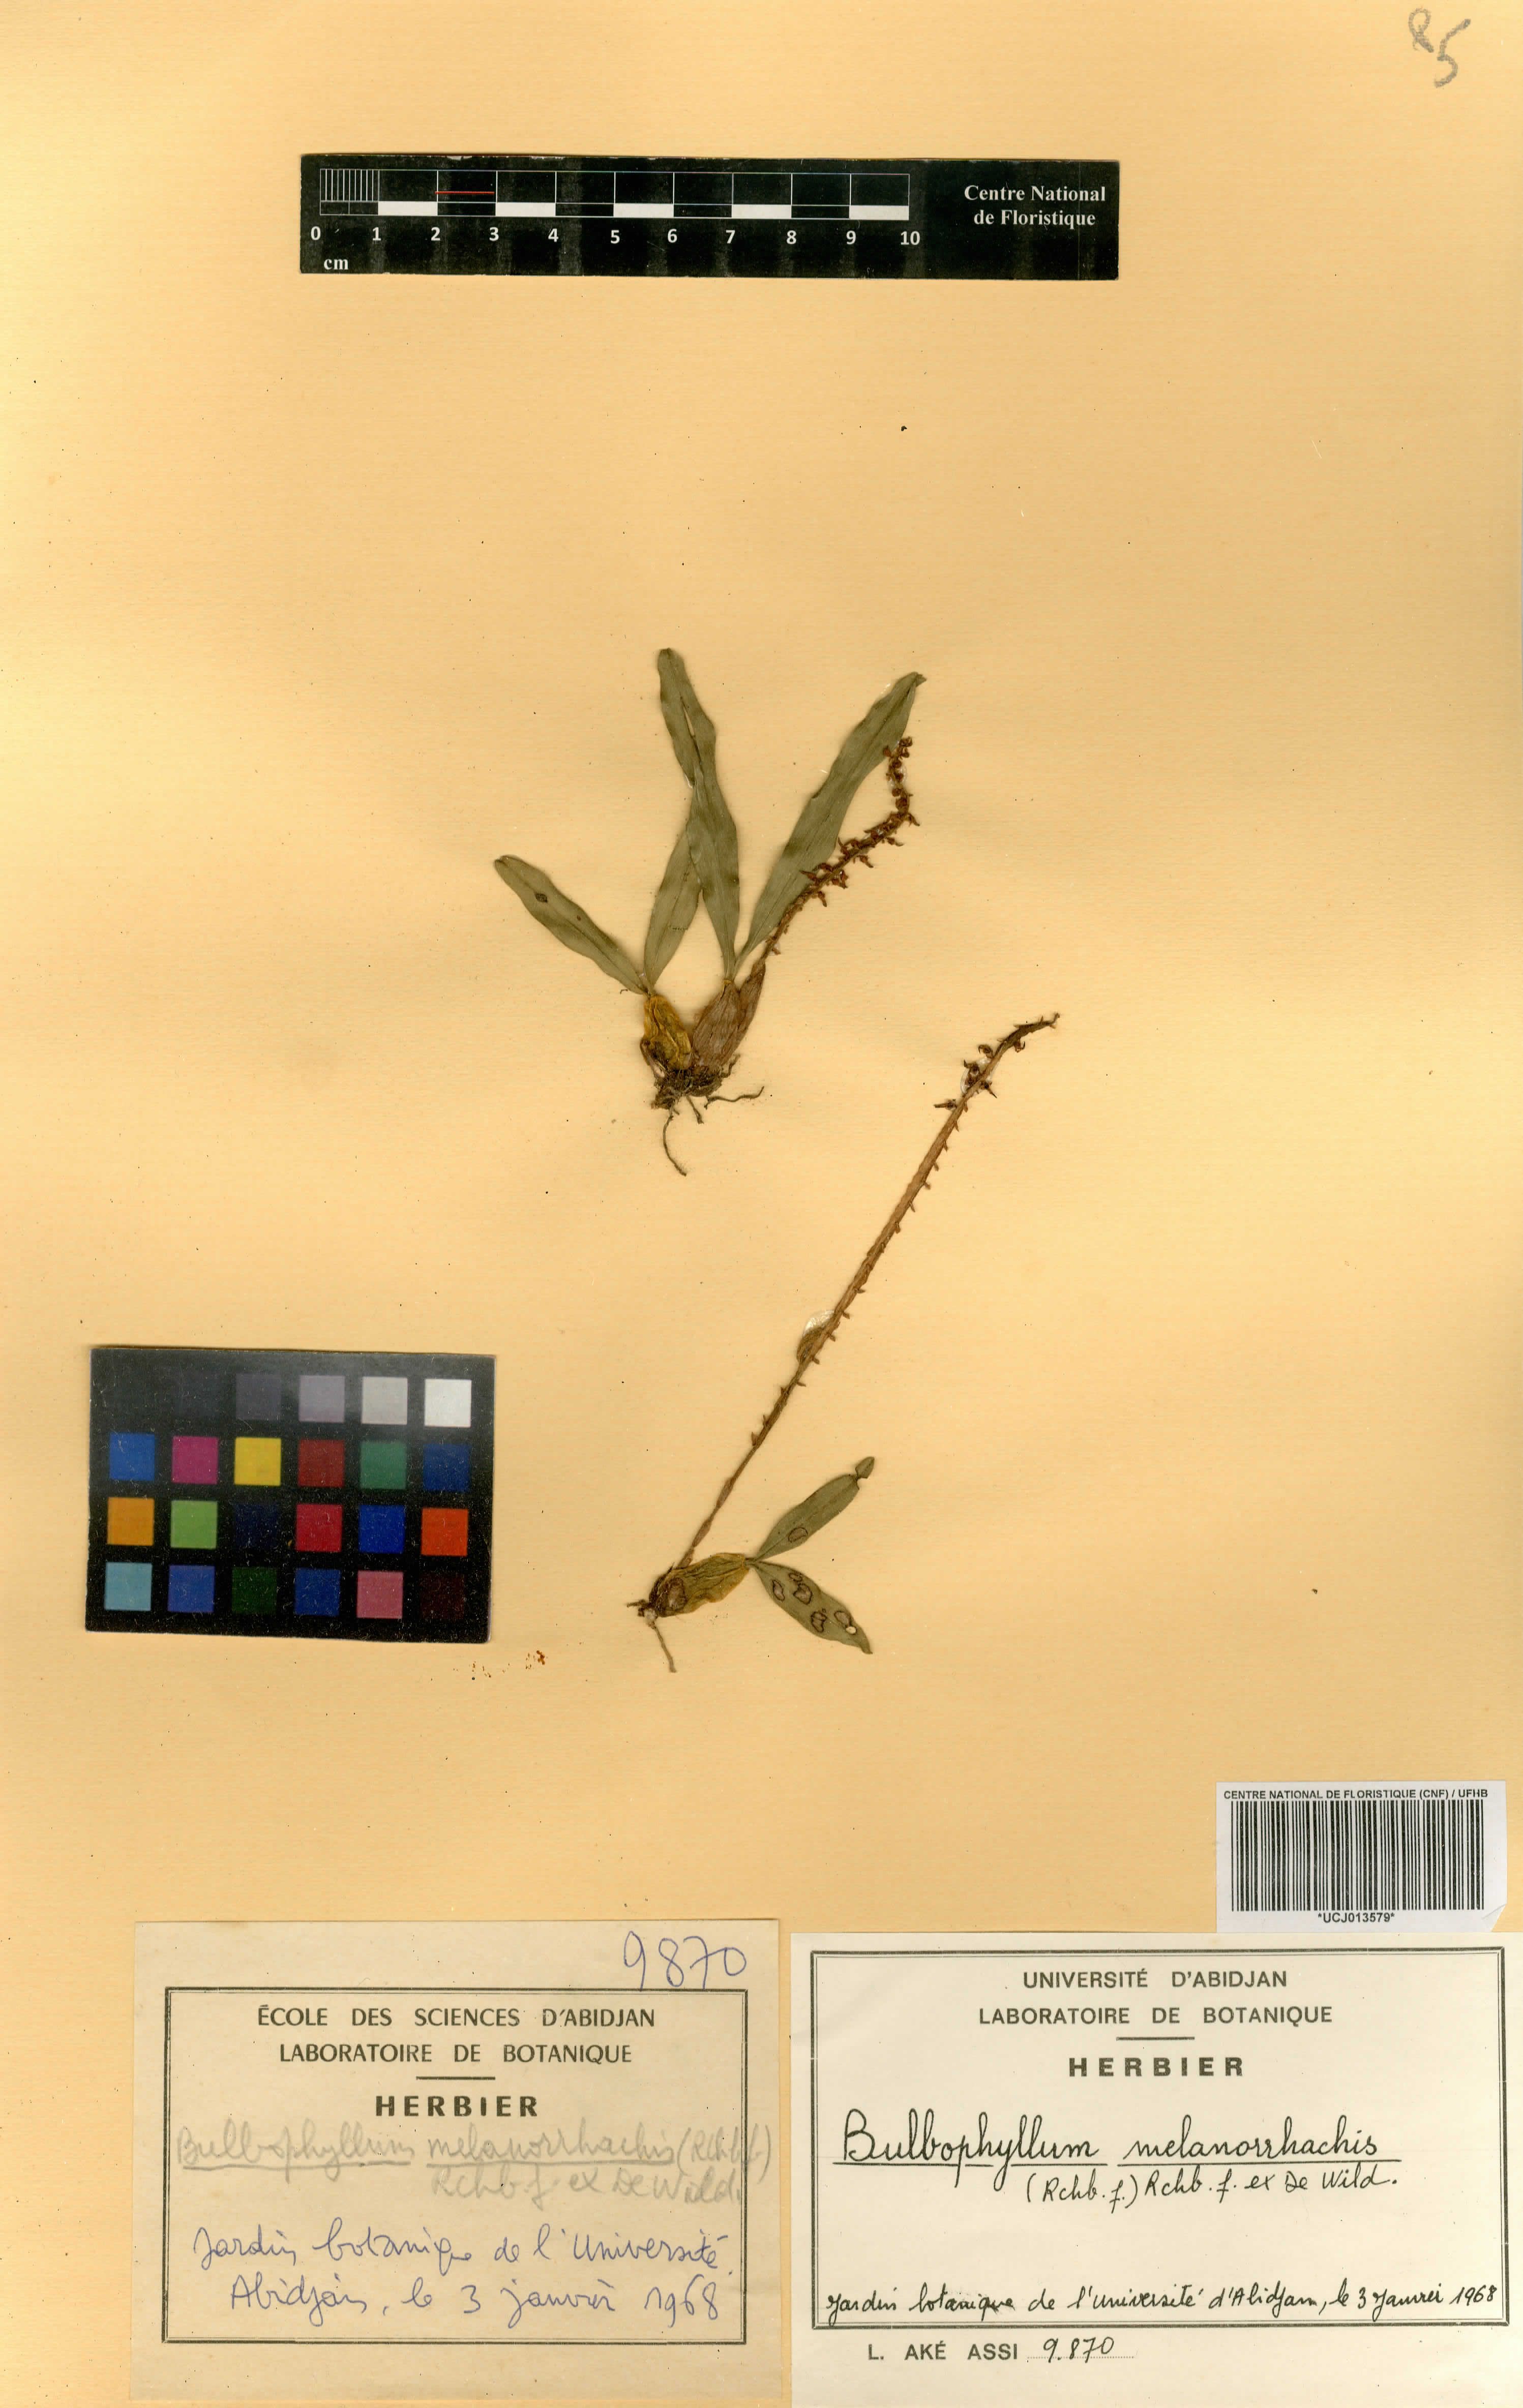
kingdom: Plantae
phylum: Tracheophyta
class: Liliopsida
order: Asparagales
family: Orchidaceae
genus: Bulbophyllum
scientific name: Bulbophyllum falcatum
